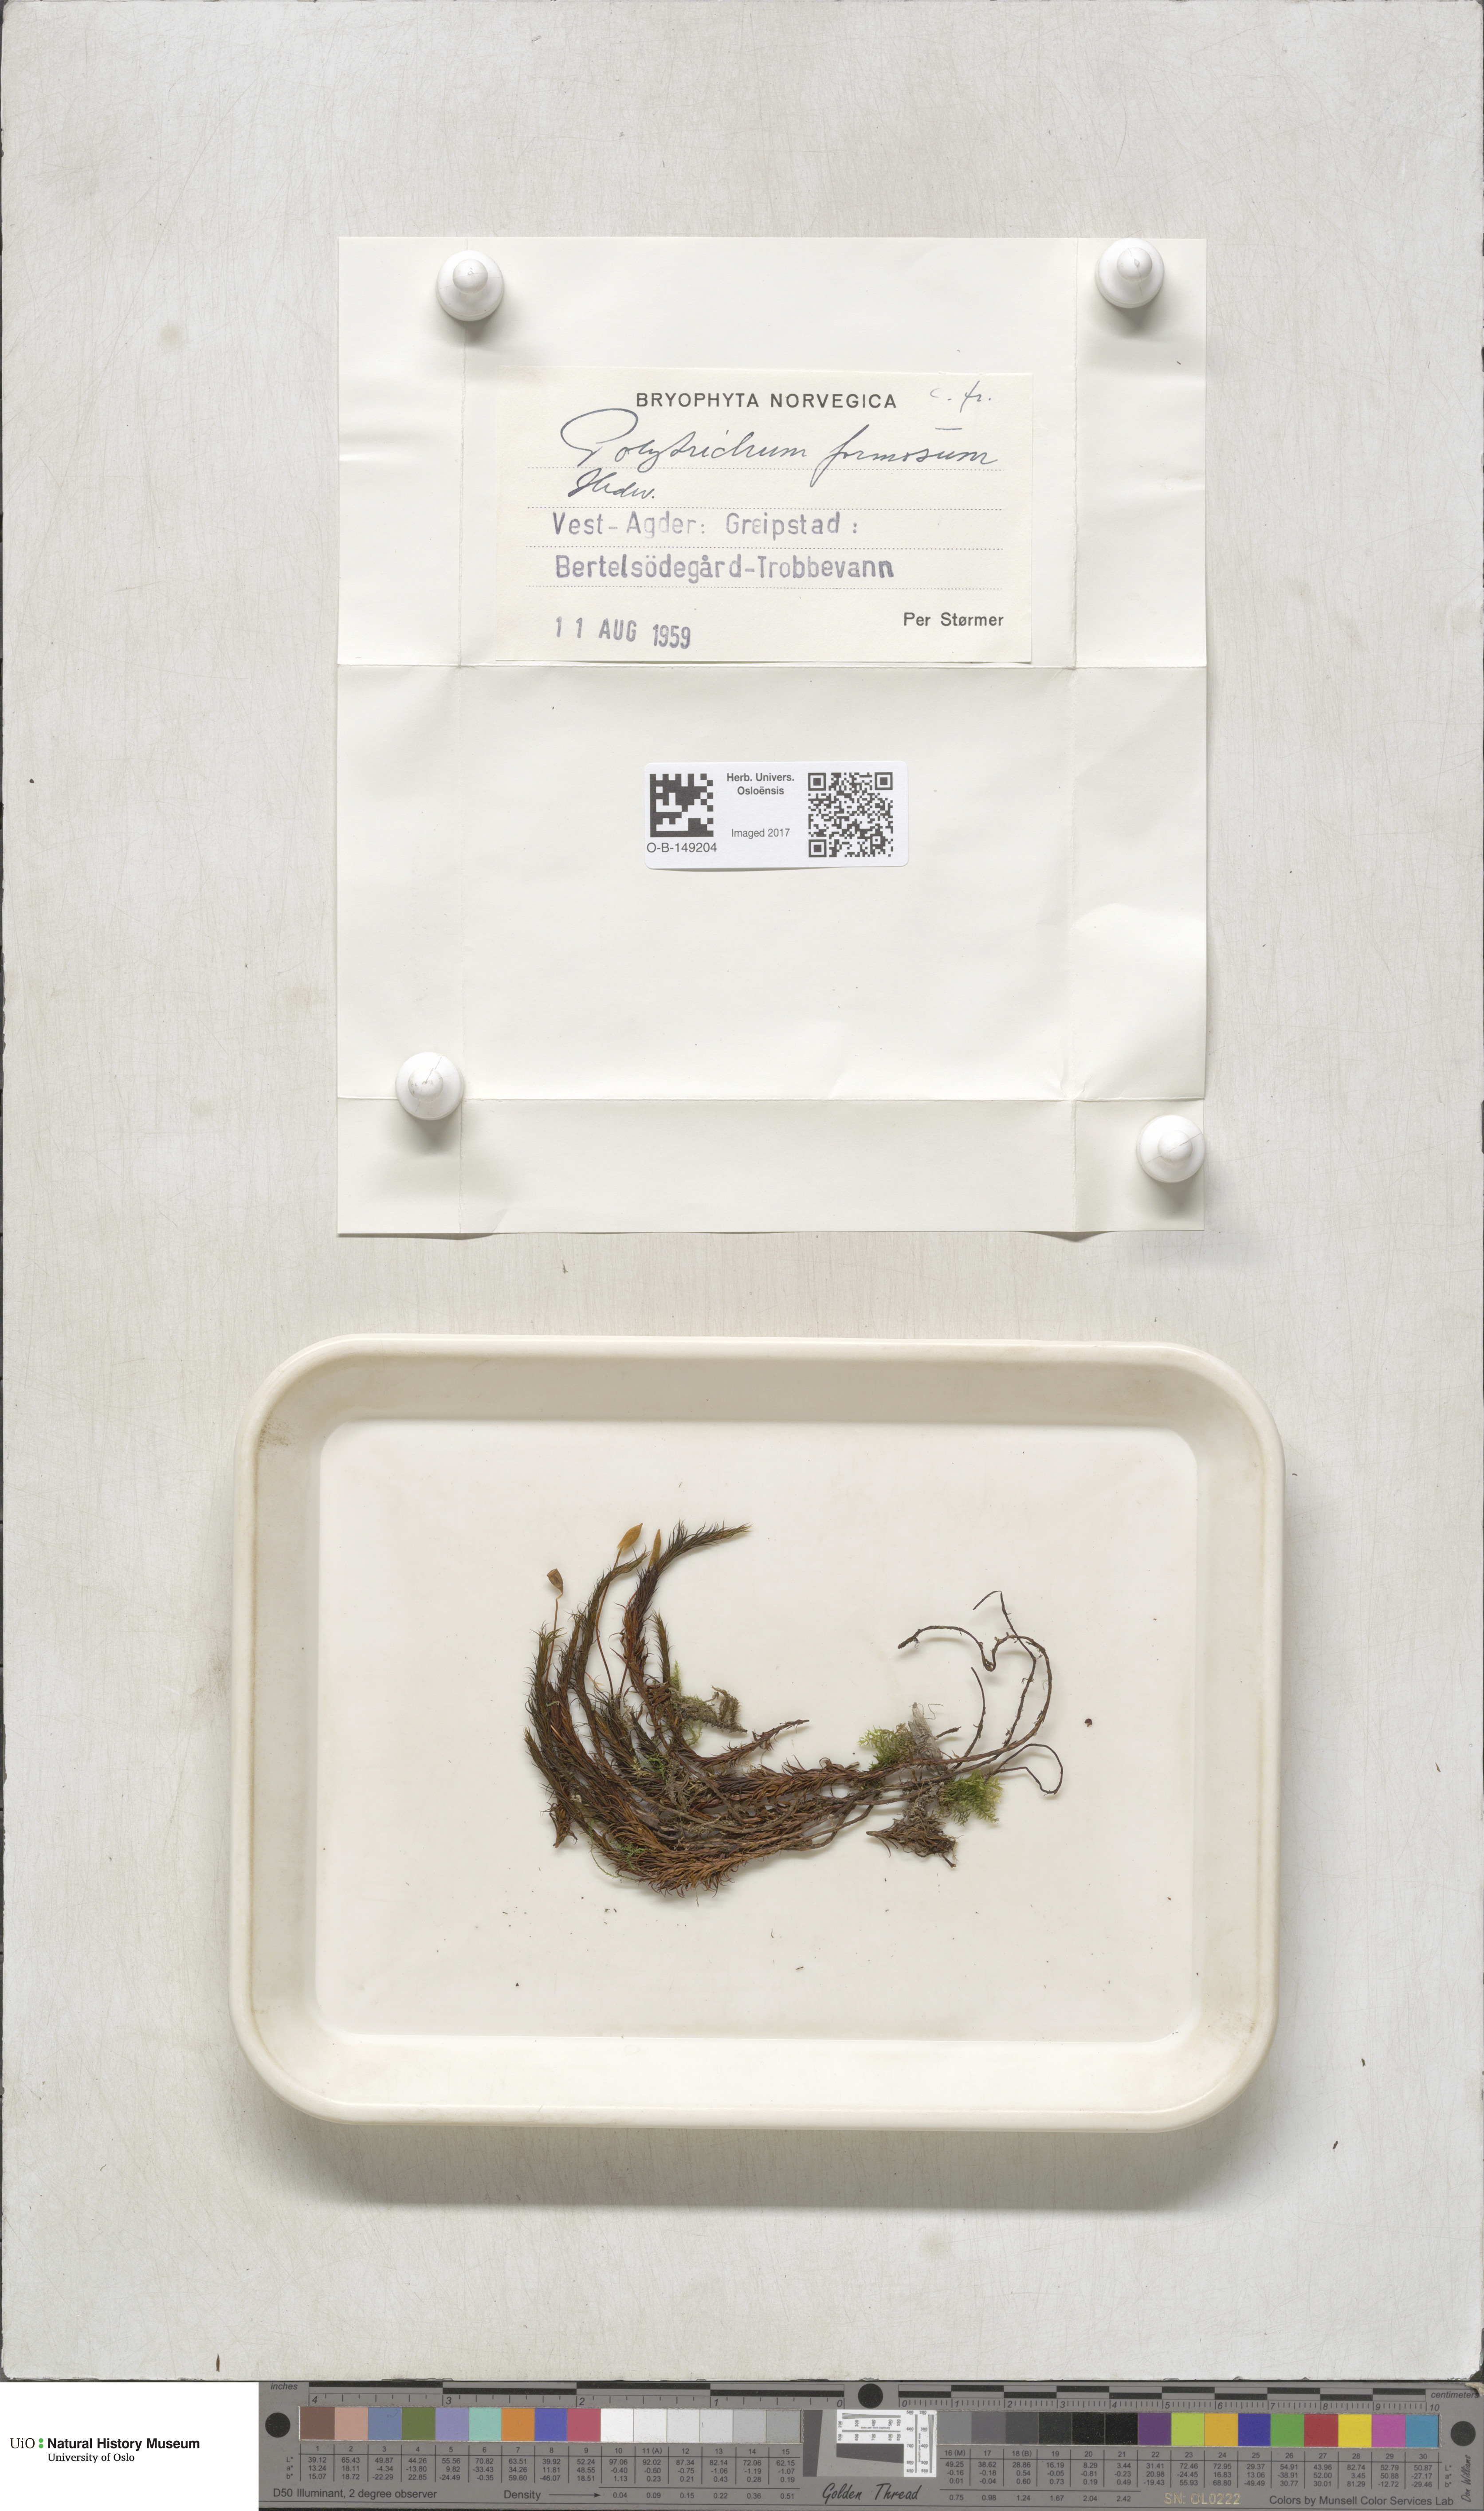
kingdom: Plantae
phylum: Bryophyta
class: Polytrichopsida
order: Polytrichales
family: Polytrichaceae
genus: Polytrichum
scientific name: Polytrichum formosum
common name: Bank haircap moss
